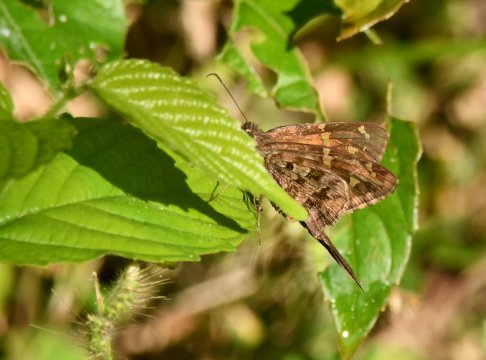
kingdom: Animalia
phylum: Arthropoda
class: Insecta
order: Lepidoptera
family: Hesperiidae
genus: Urbanus
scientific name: Urbanus dorantes
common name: Dorantes Longtail
